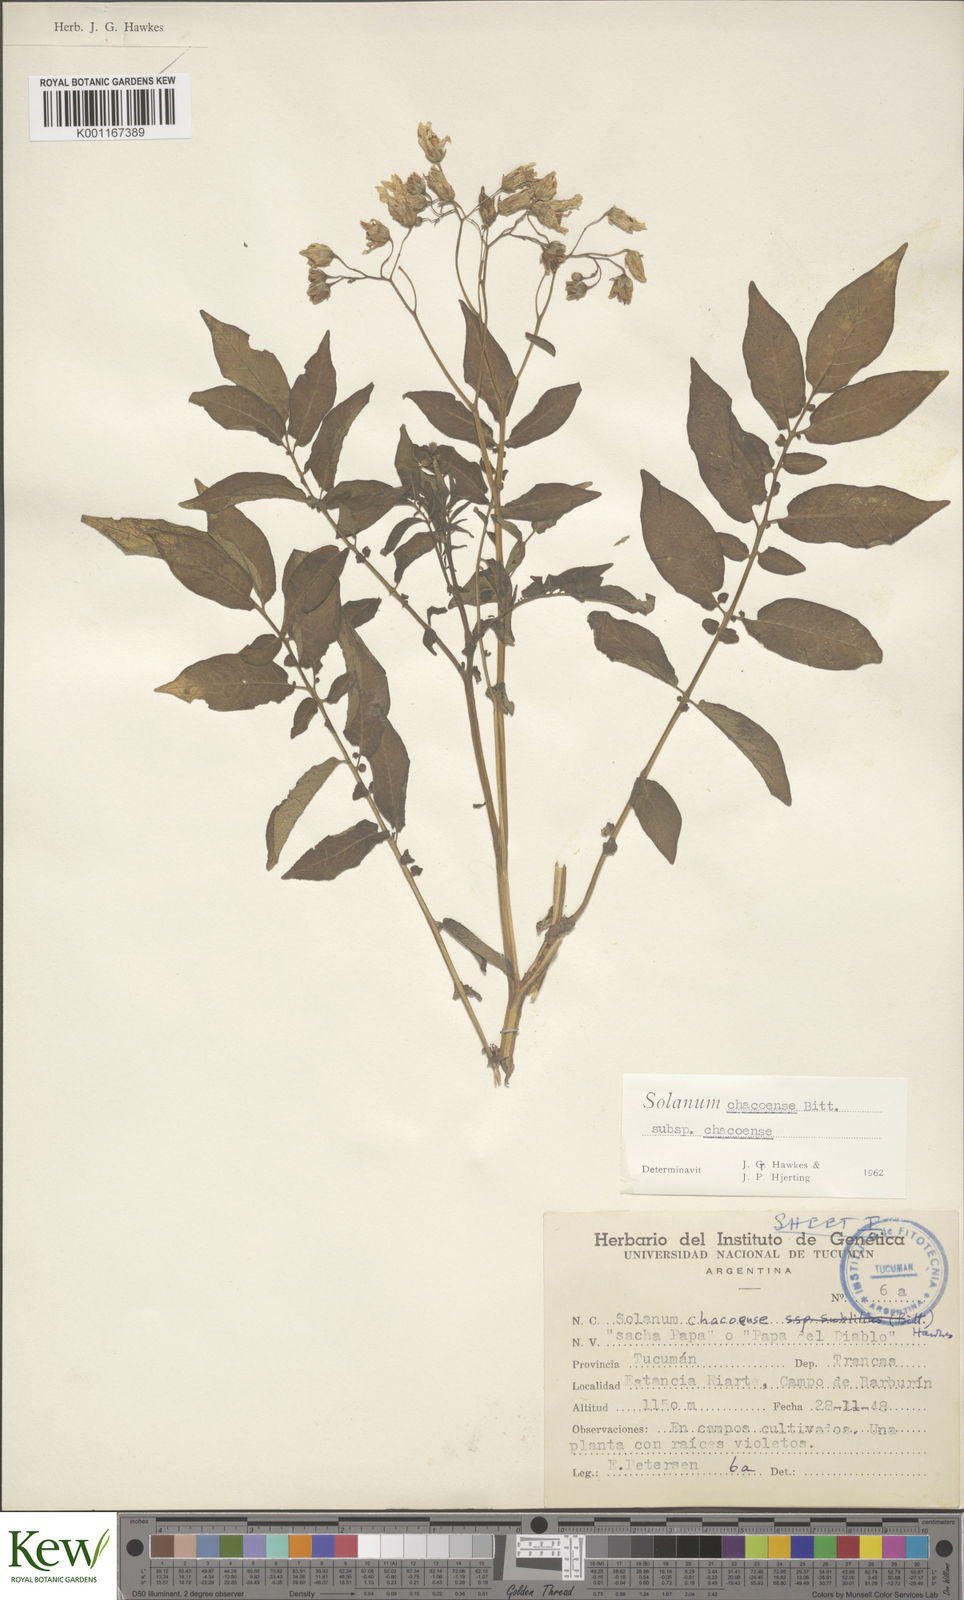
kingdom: Plantae
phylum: Tracheophyta
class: Magnoliopsida
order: Solanales
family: Solanaceae
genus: Solanum
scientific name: Solanum chacoense
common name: Chaco potato
